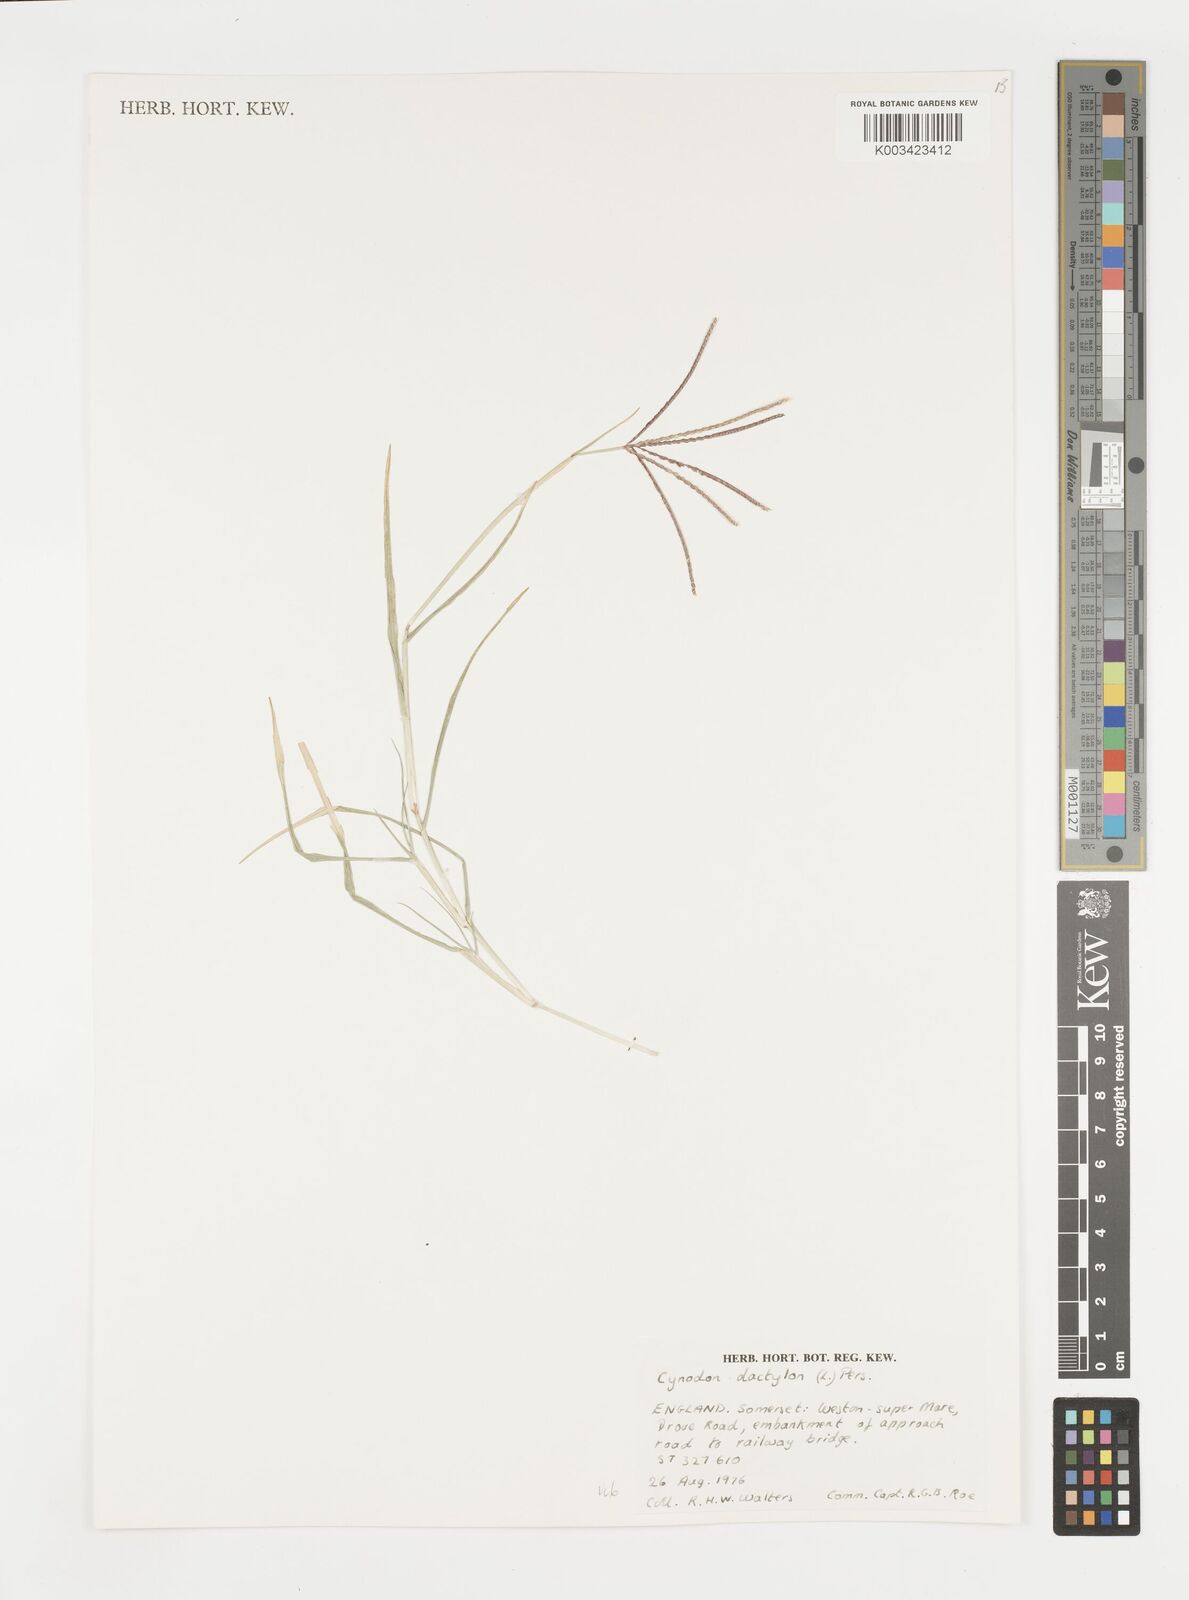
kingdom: Plantae
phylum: Tracheophyta
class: Liliopsida
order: Poales
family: Poaceae
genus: Cynodon
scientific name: Cynodon dactylon
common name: Bermuda grass
